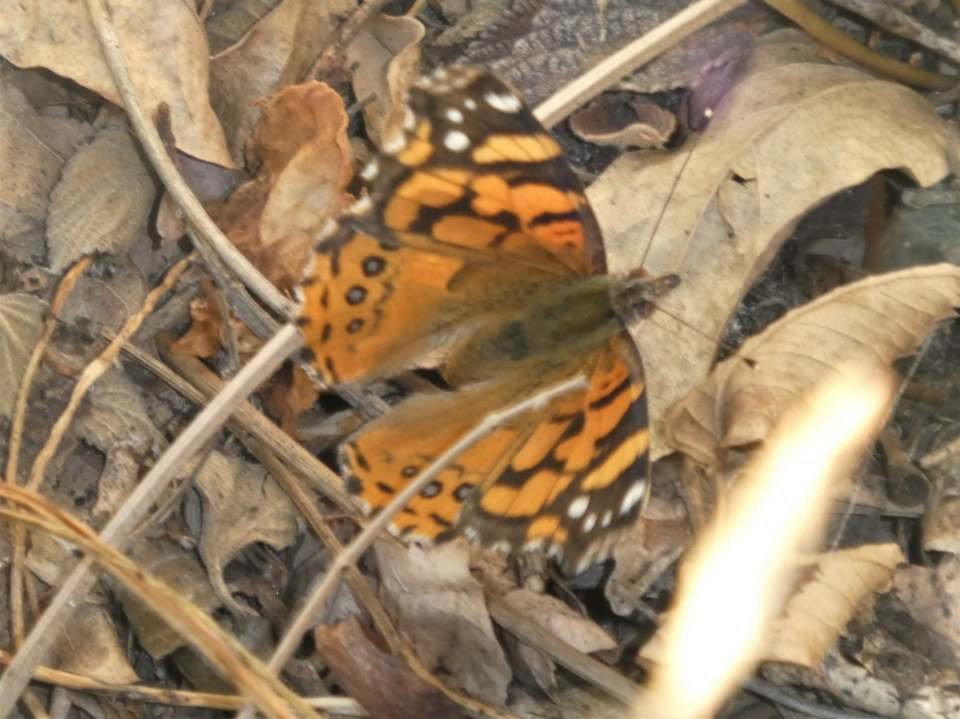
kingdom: Animalia
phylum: Arthropoda
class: Insecta
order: Lepidoptera
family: Nymphalidae
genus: Vanessa
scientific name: Vanessa annabella
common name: West Coast Lady
